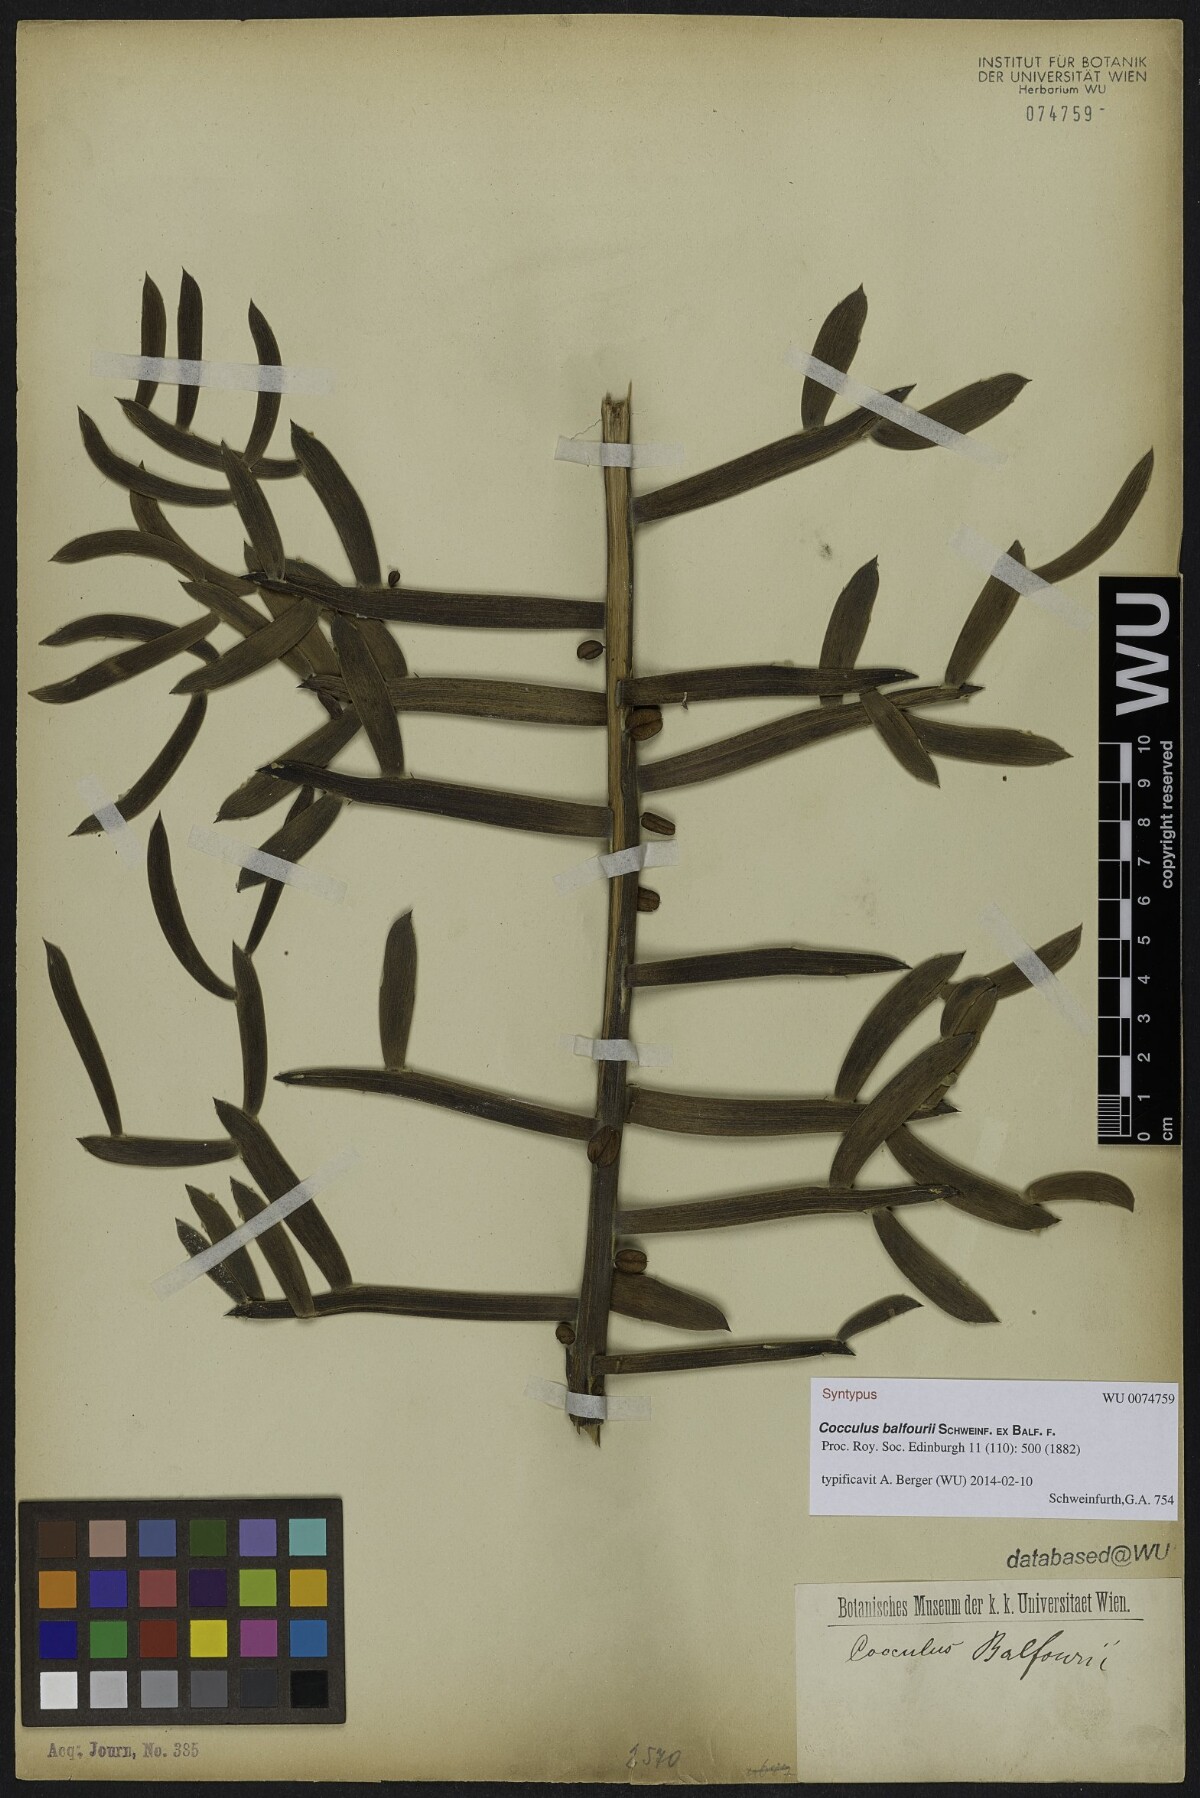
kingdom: Plantae
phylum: Tracheophyta
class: Magnoliopsida
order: Ranunculales
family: Menispermaceae
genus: Cocculus
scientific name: Cocculus balfourii
